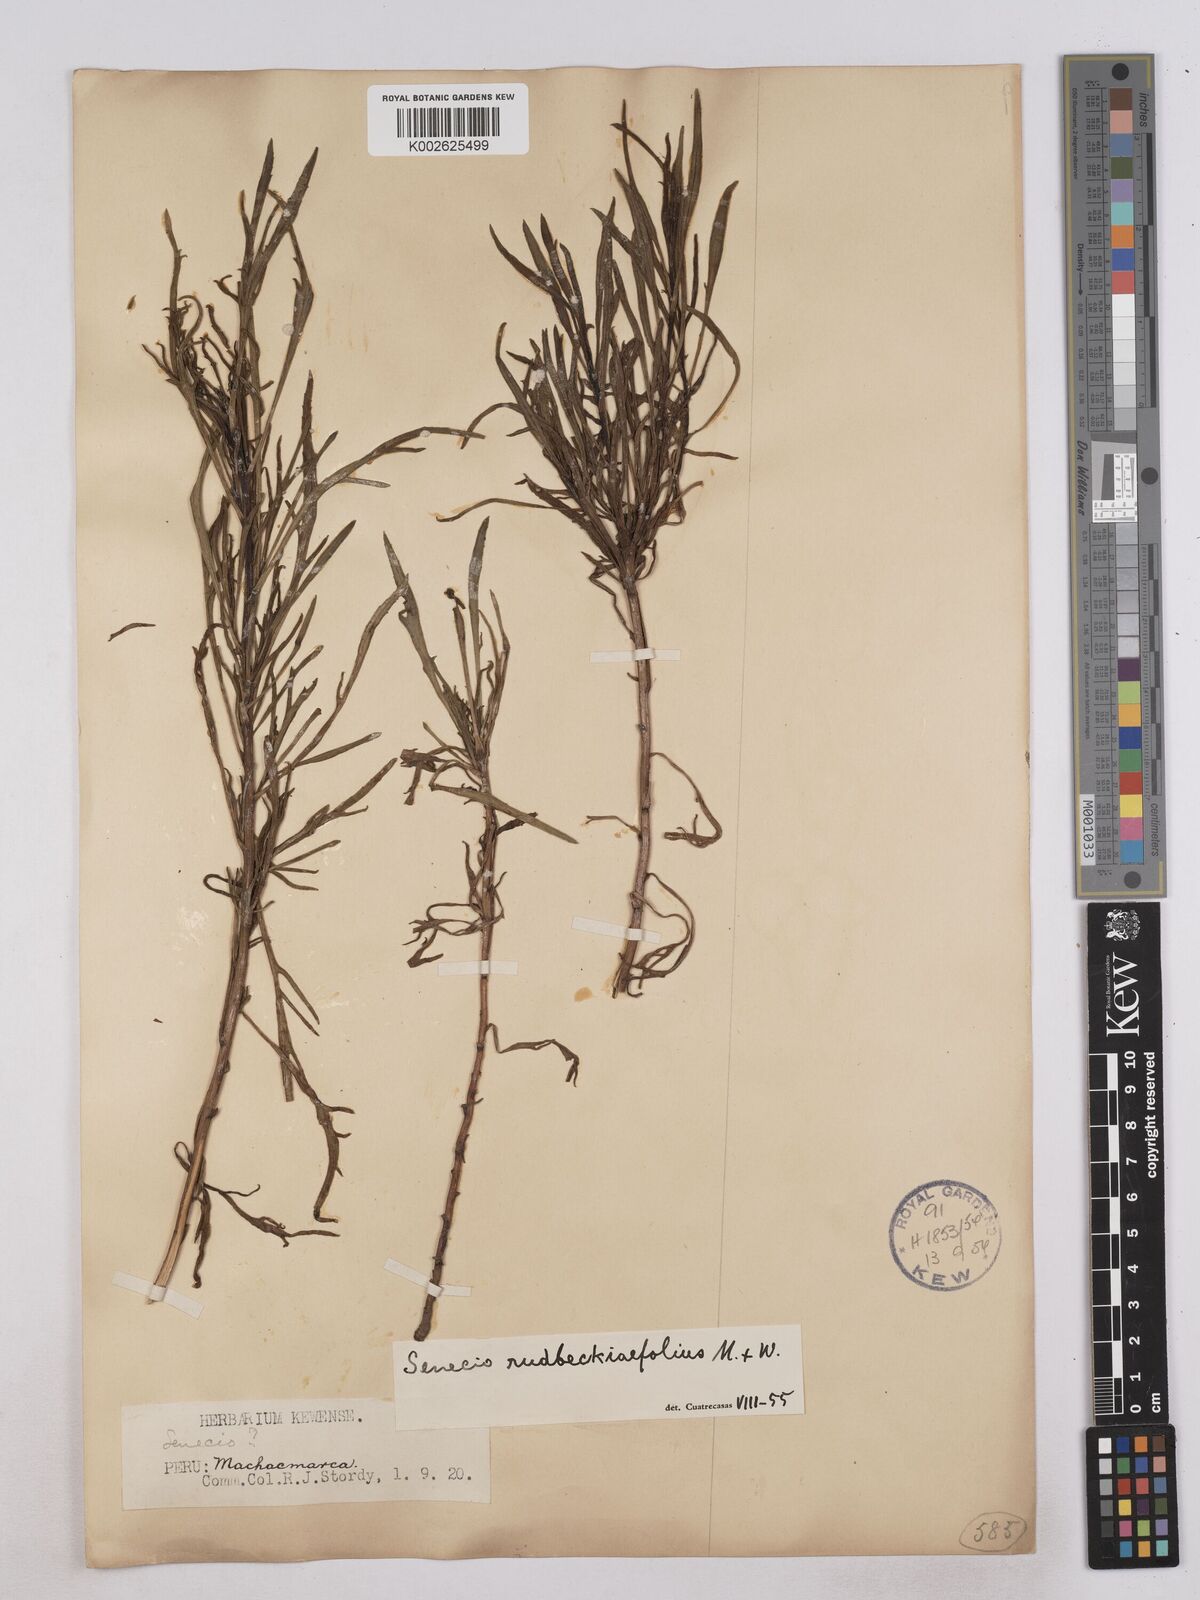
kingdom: Plantae
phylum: Tracheophyta
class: Magnoliopsida
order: Asterales
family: Asteraceae
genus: Senecio
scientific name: Senecio rudbeckiifolius
